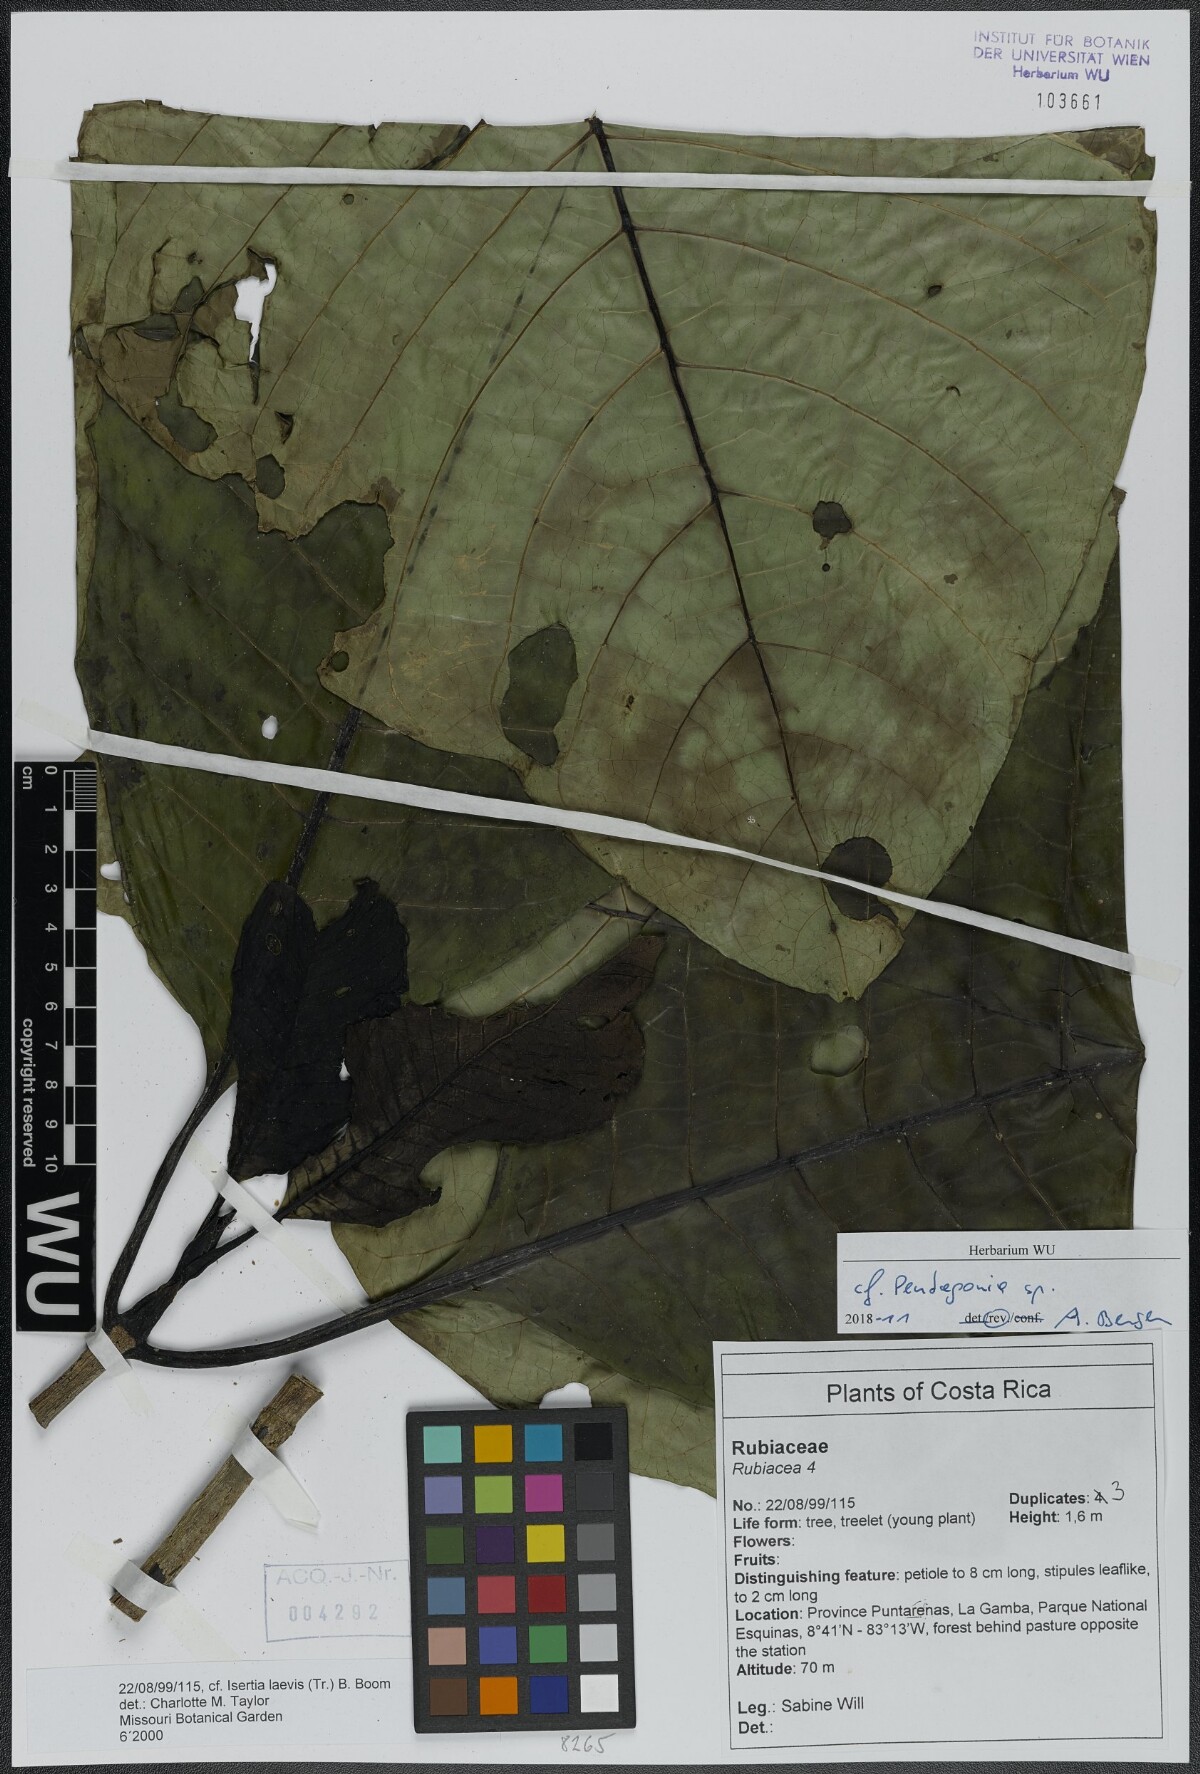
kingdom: Plantae
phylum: Tracheophyta
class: Magnoliopsida
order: Gentianales
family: Rubiaceae
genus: Pentagonia
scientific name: Pentagonia
